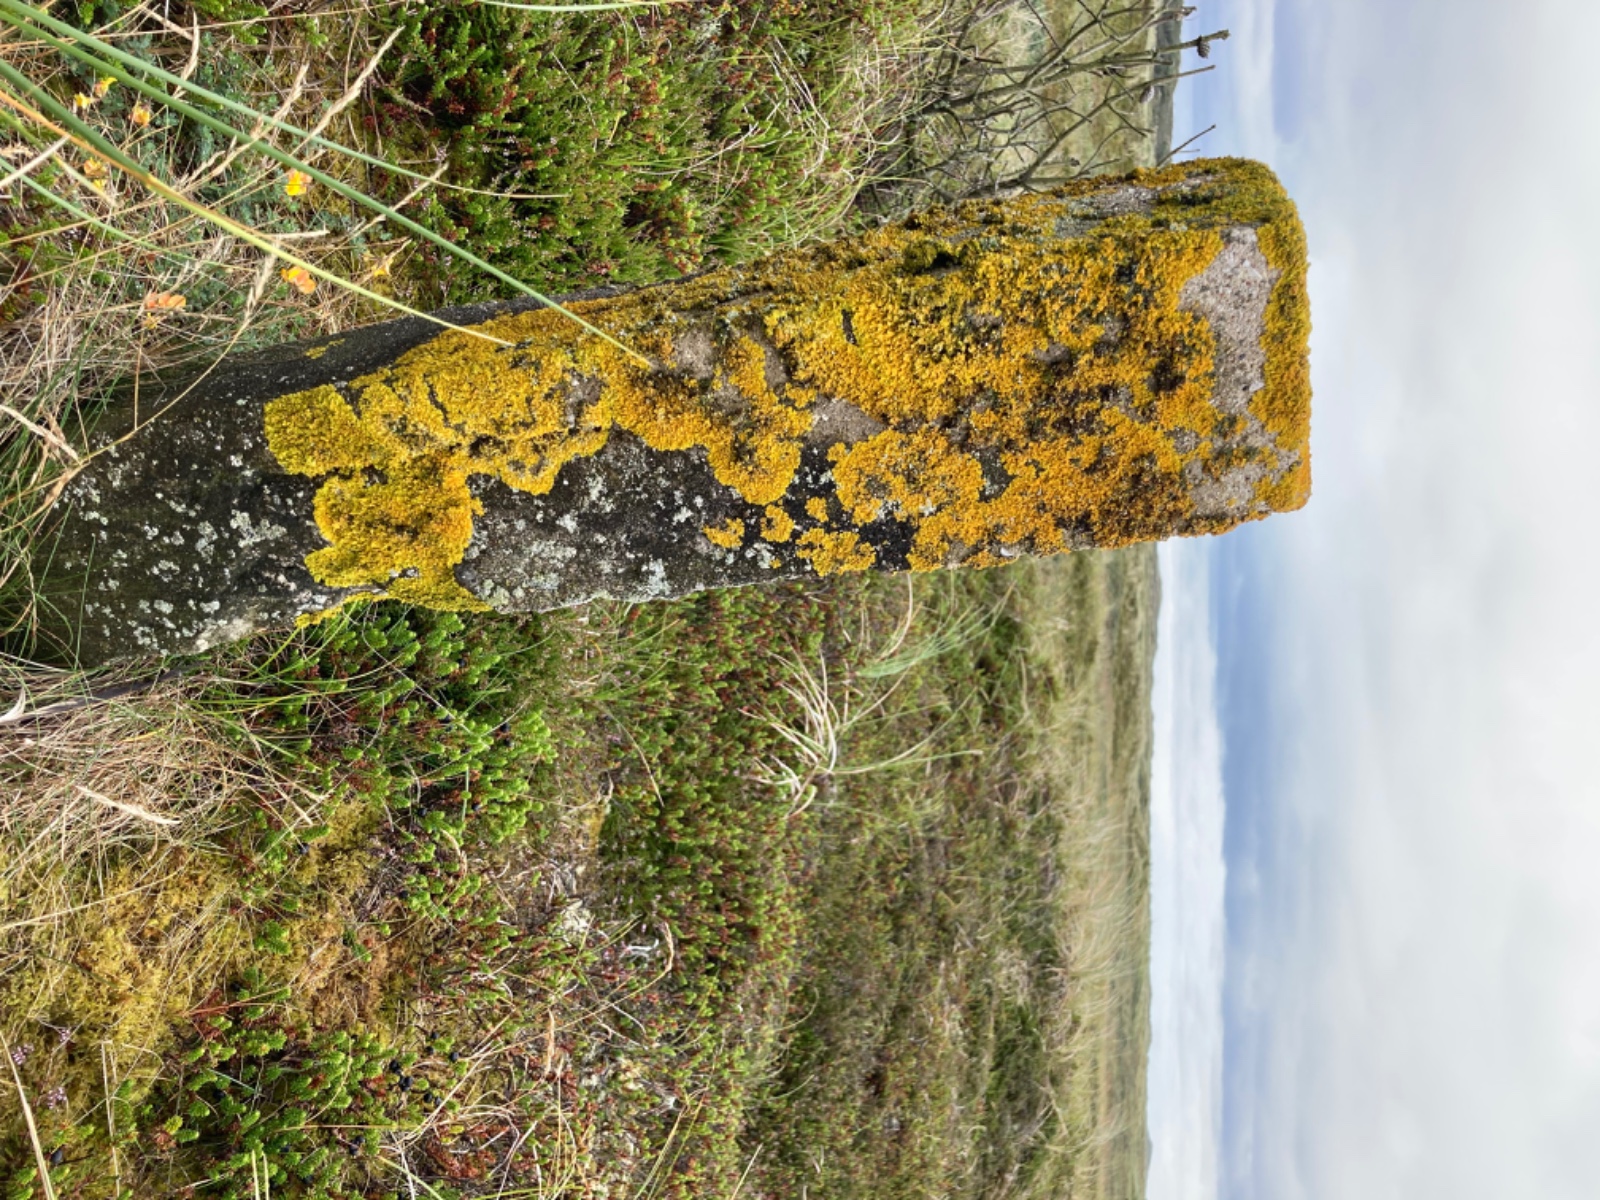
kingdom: Fungi
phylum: Ascomycota
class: Lecanoromycetes
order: Teloschistales
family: Teloschistaceae
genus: Xanthoria
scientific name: Xanthoria parietina
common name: almindelig væggelav
